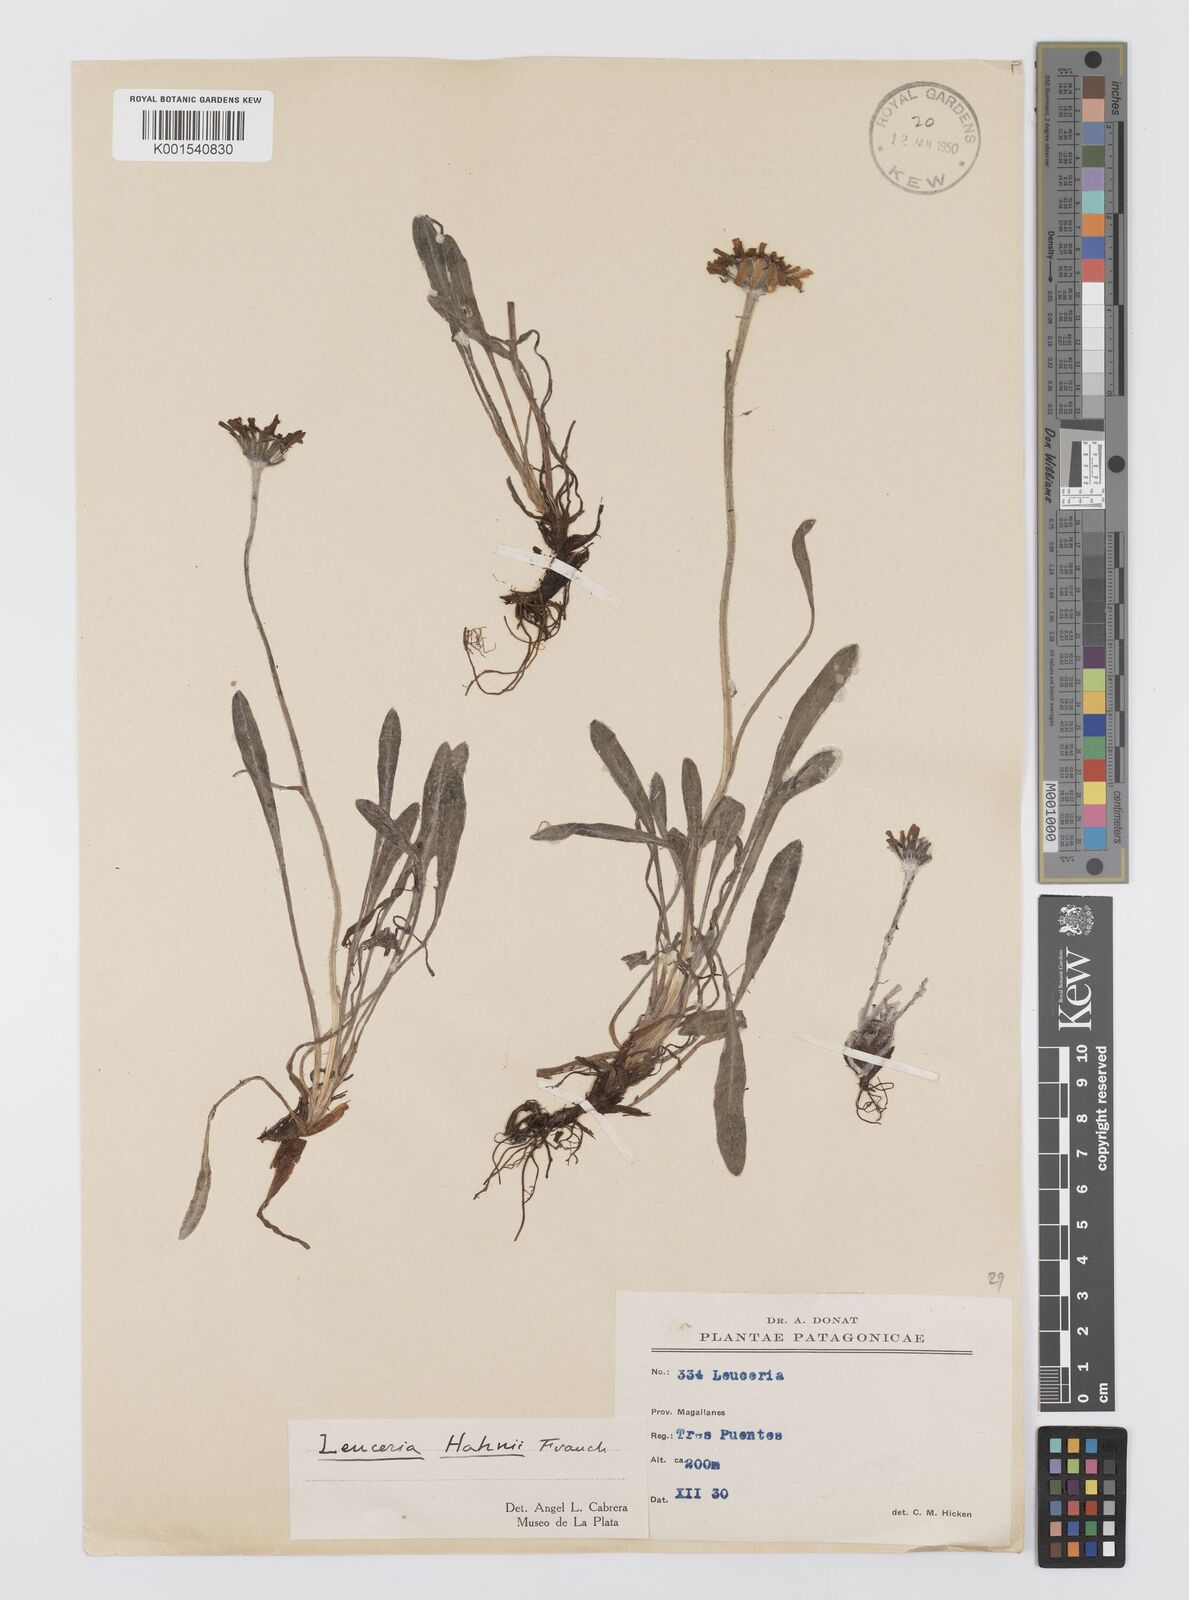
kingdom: Plantae
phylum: Tracheophyta
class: Magnoliopsida
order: Asterales
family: Asteraceae
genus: Leucheria
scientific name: Leucheria hahnii
